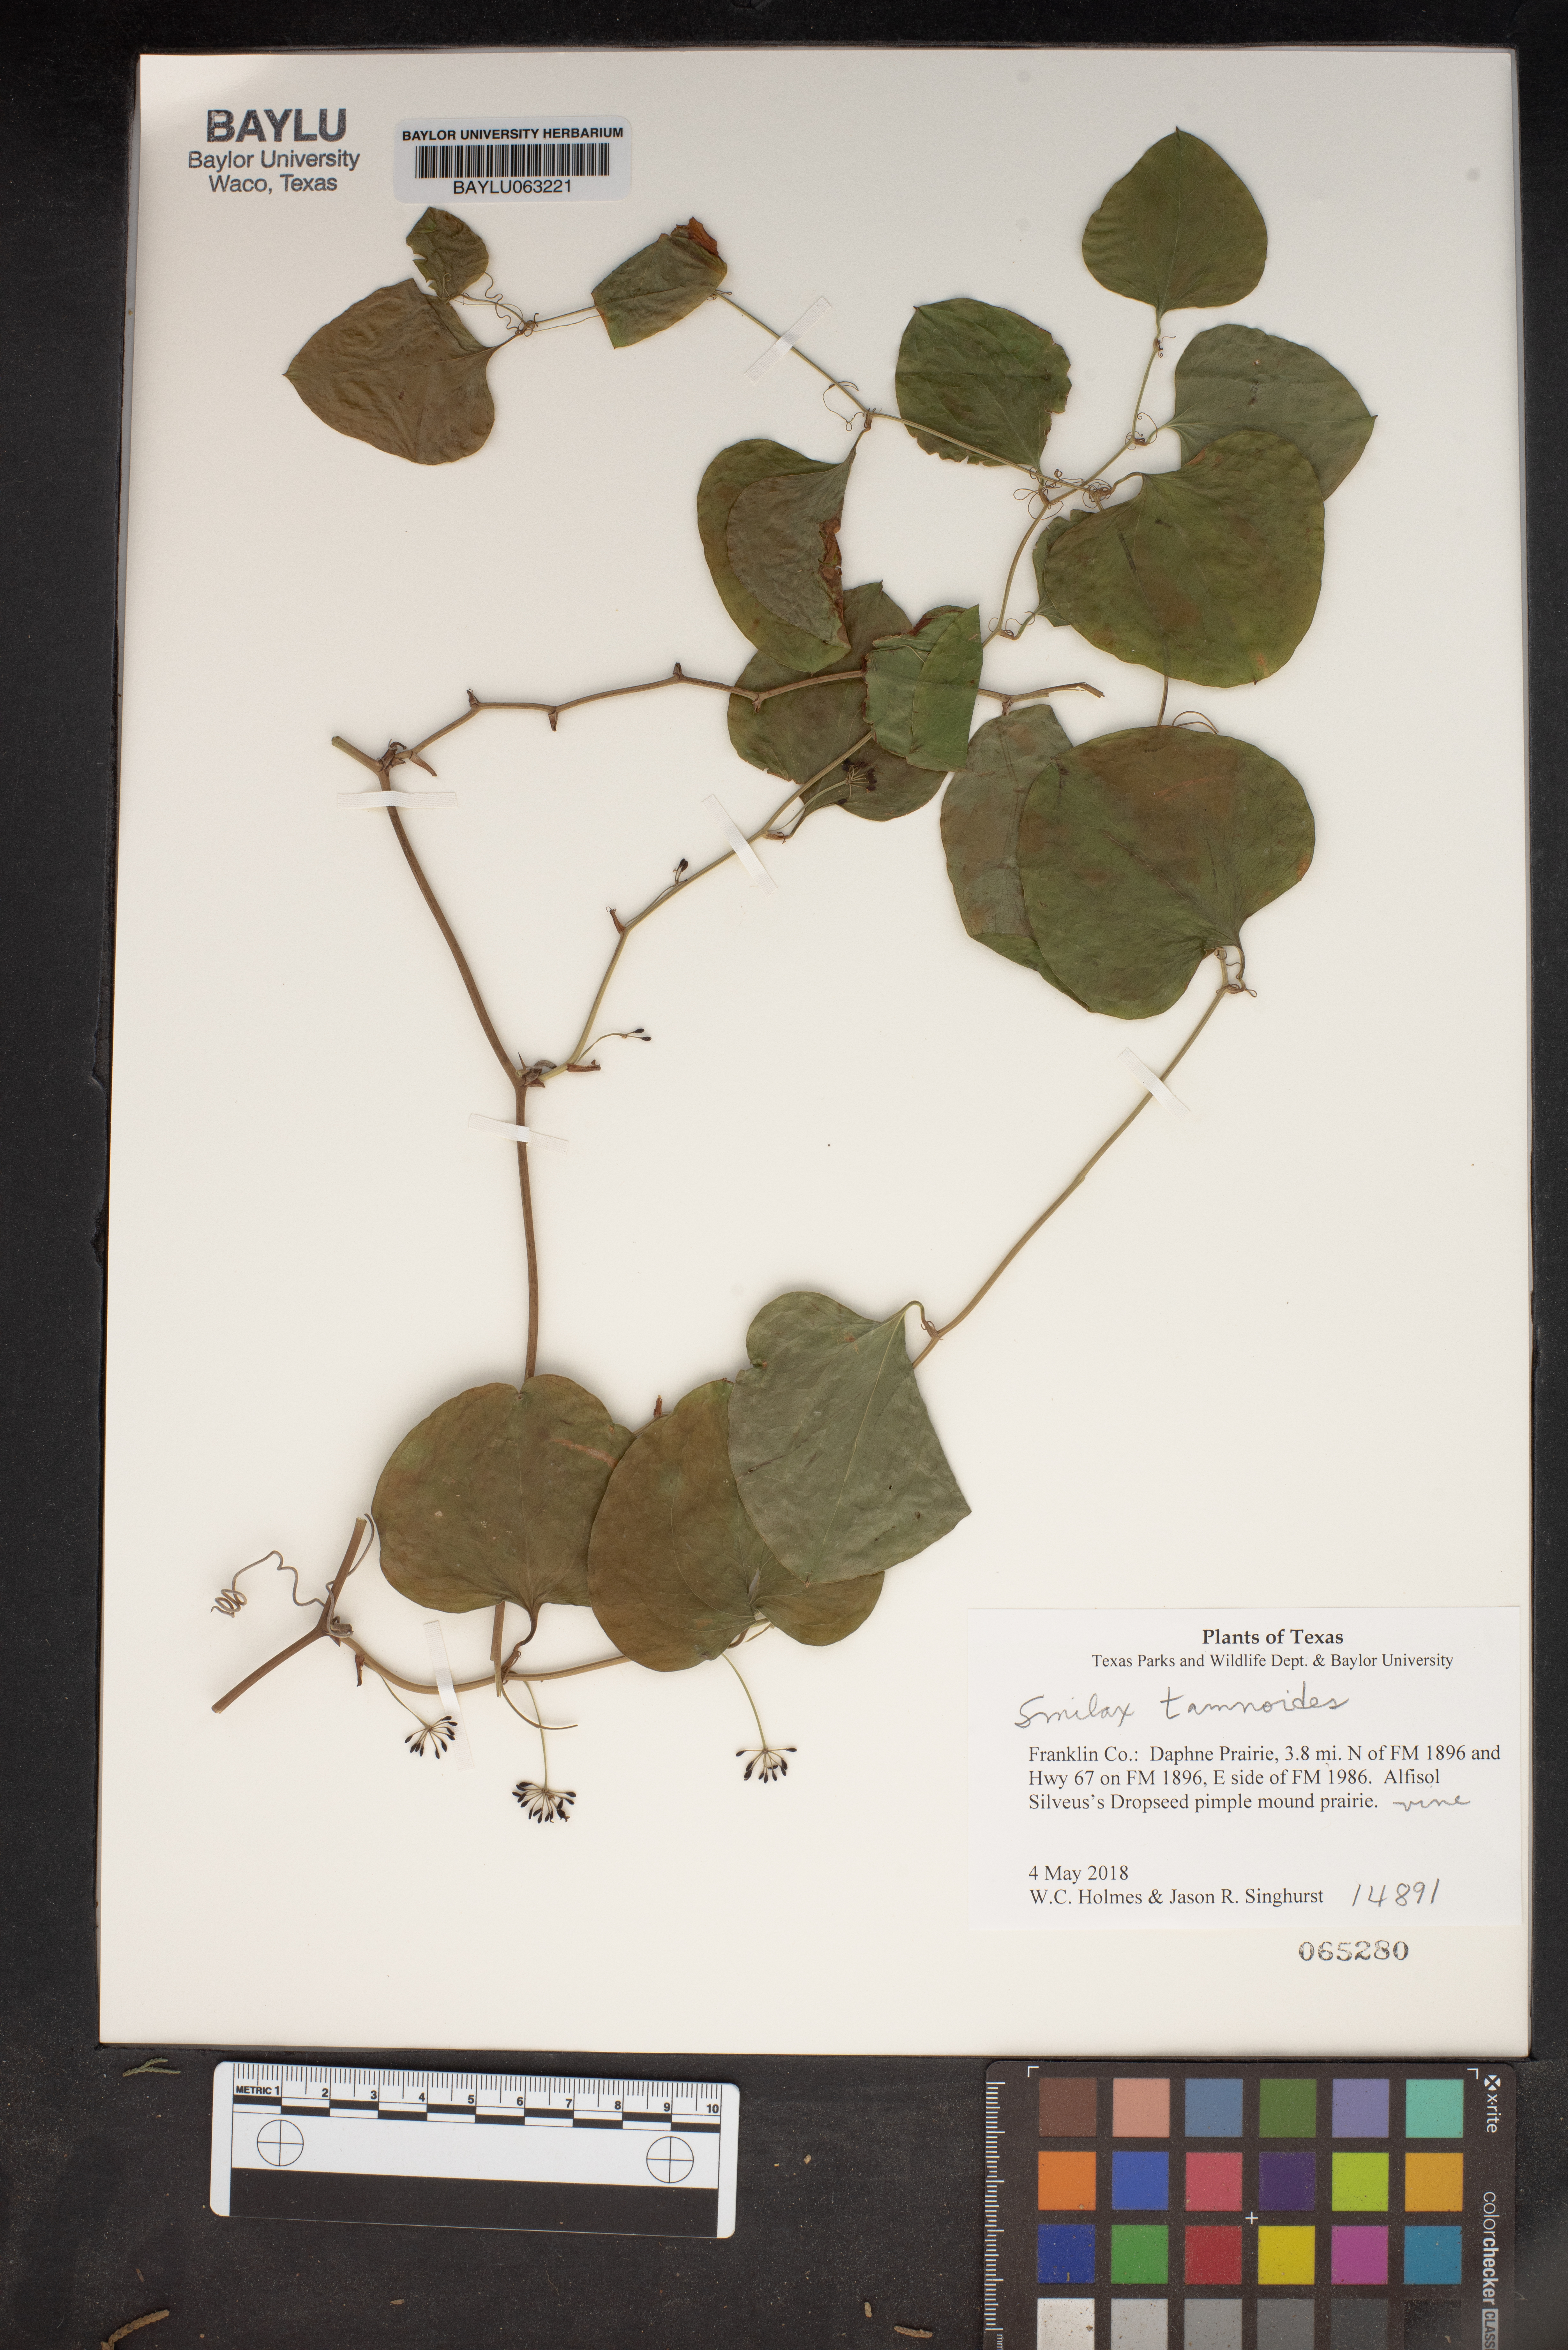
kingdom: Plantae
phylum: Tracheophyta
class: Liliopsida
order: Liliales
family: Smilacaceae
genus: Smilax
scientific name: Smilax tamnoides
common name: Hellfetter
